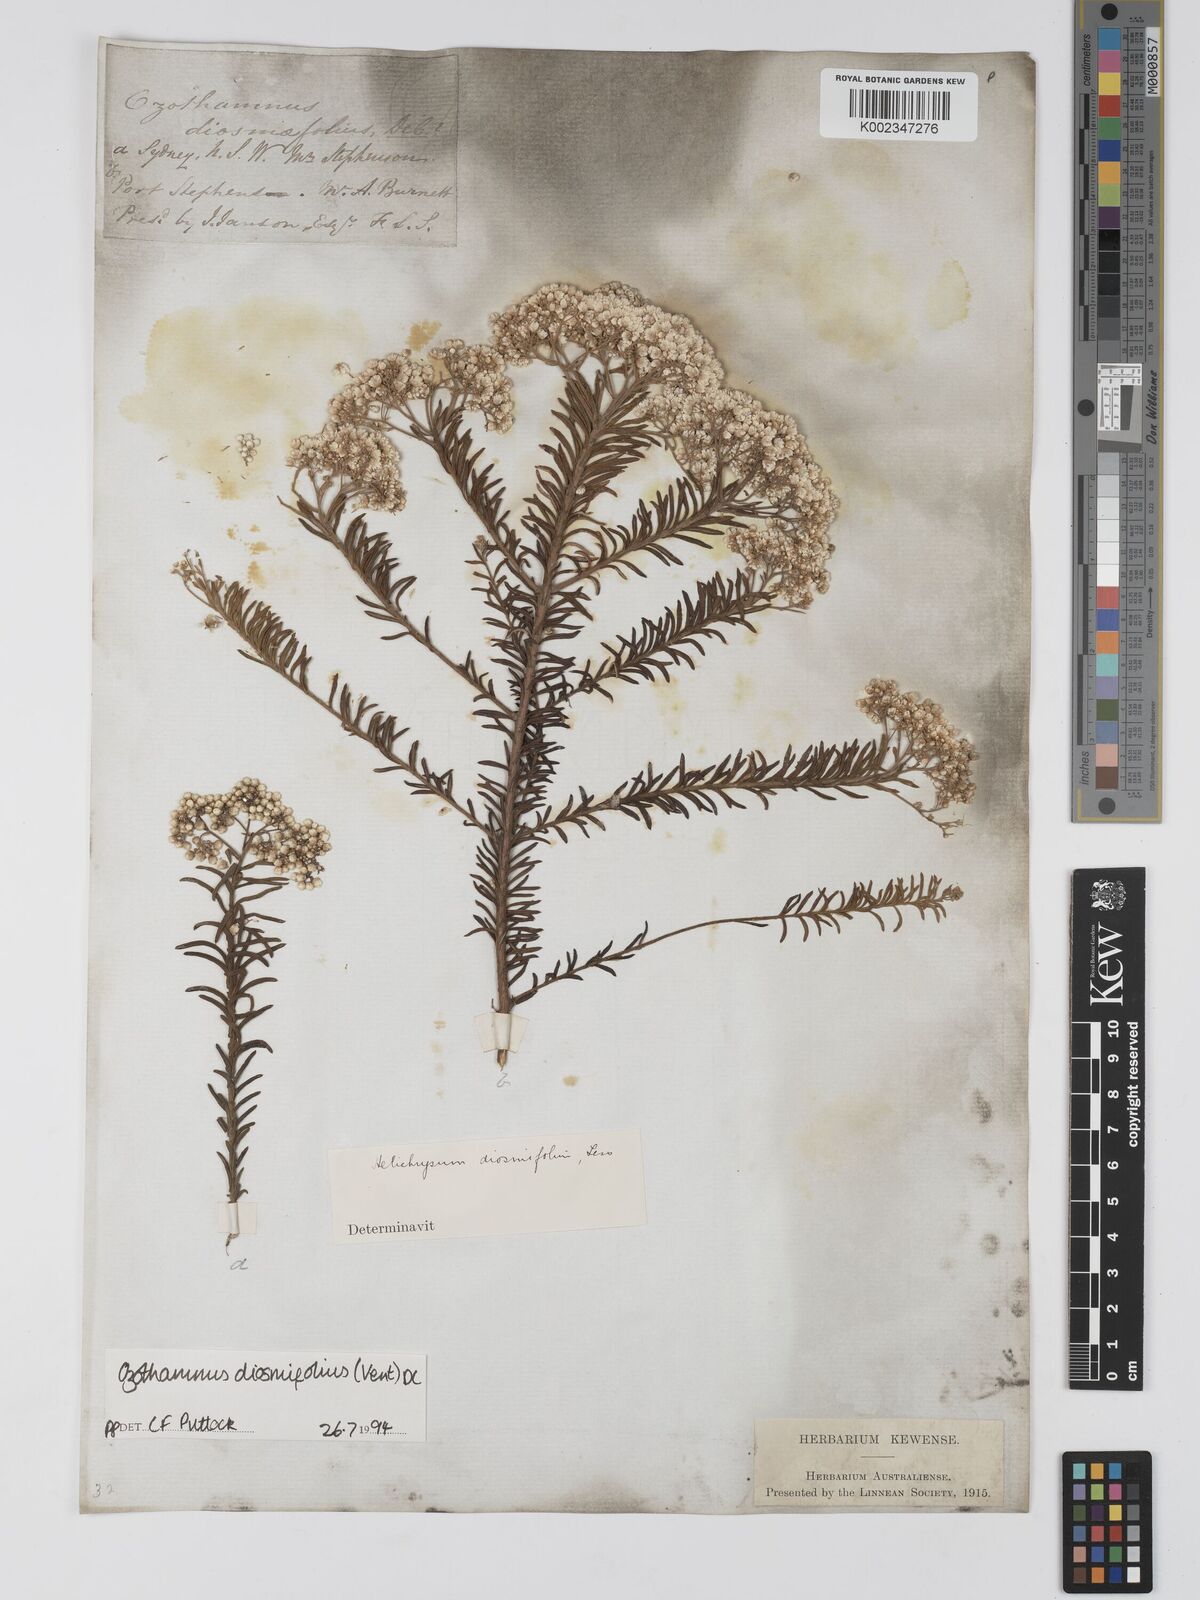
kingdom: Plantae
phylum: Tracheophyta
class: Magnoliopsida
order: Asterales
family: Asteraceae
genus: Ozothamnus
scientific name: Ozothamnus diosmifolius
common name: White-dogwood
